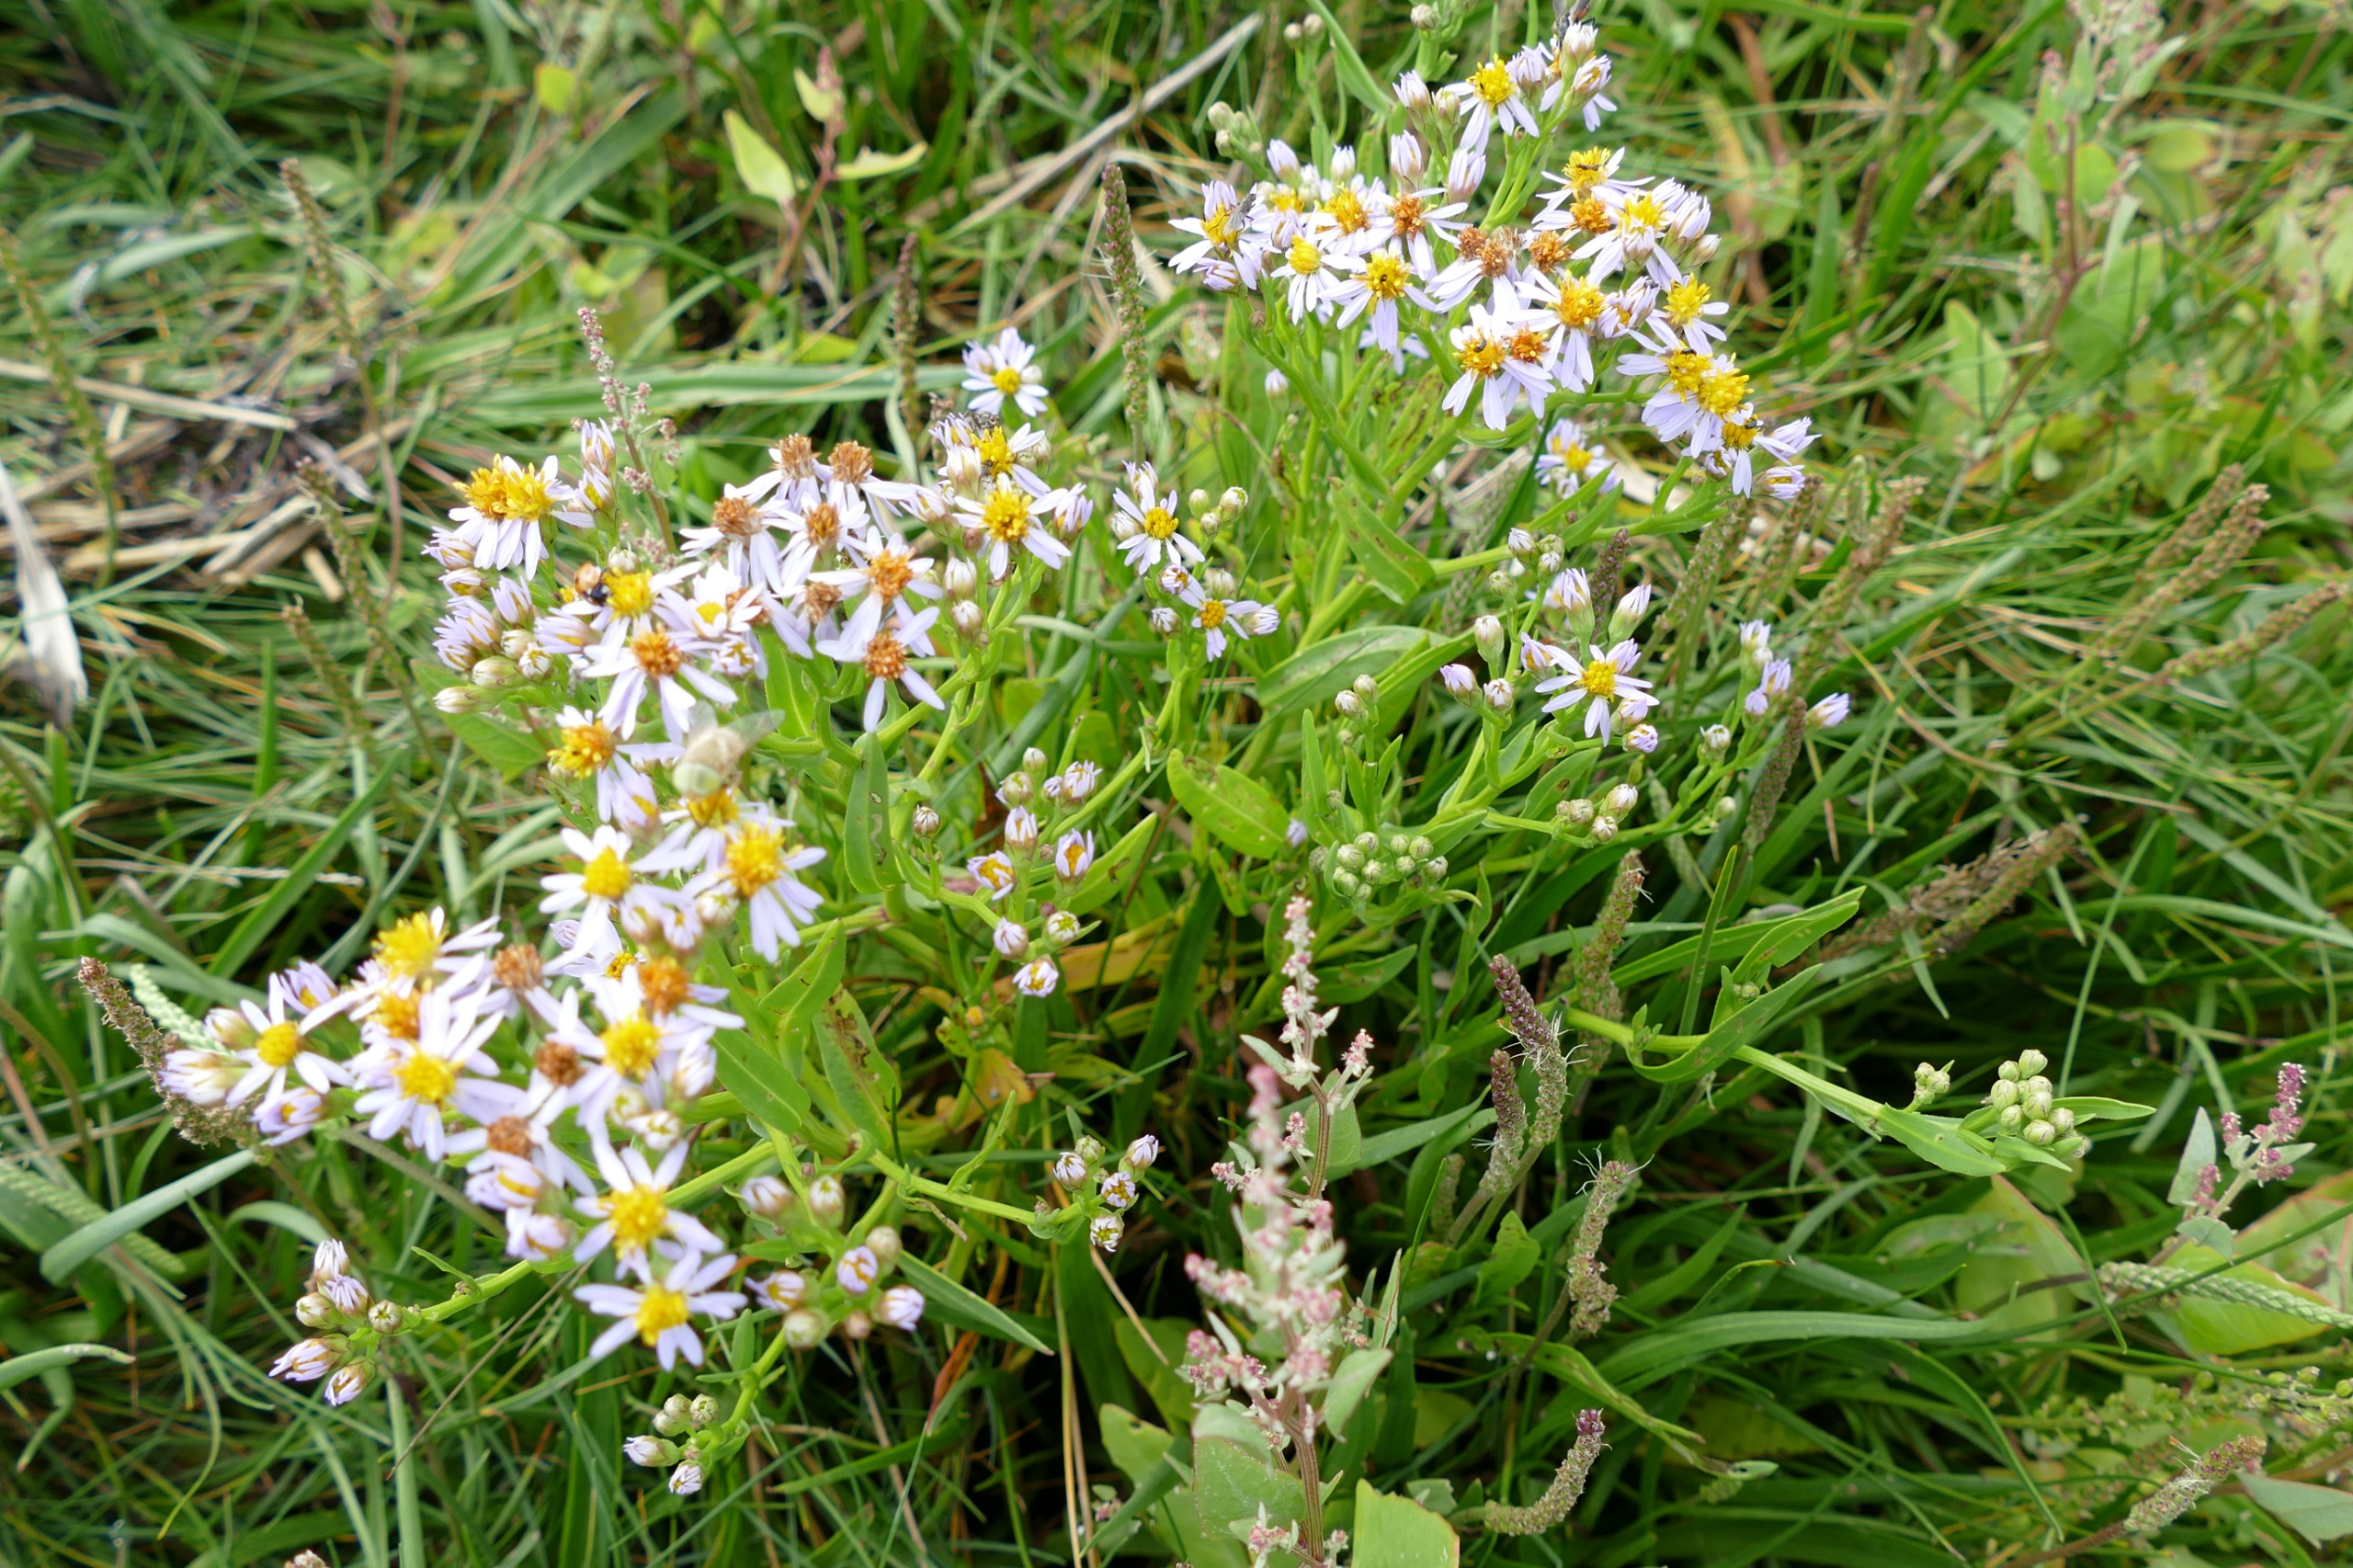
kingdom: Plantae
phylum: Tracheophyta
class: Magnoliopsida
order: Asterales
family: Asteraceae
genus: Tripolium
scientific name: Tripolium pannonicum
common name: Strandasters
